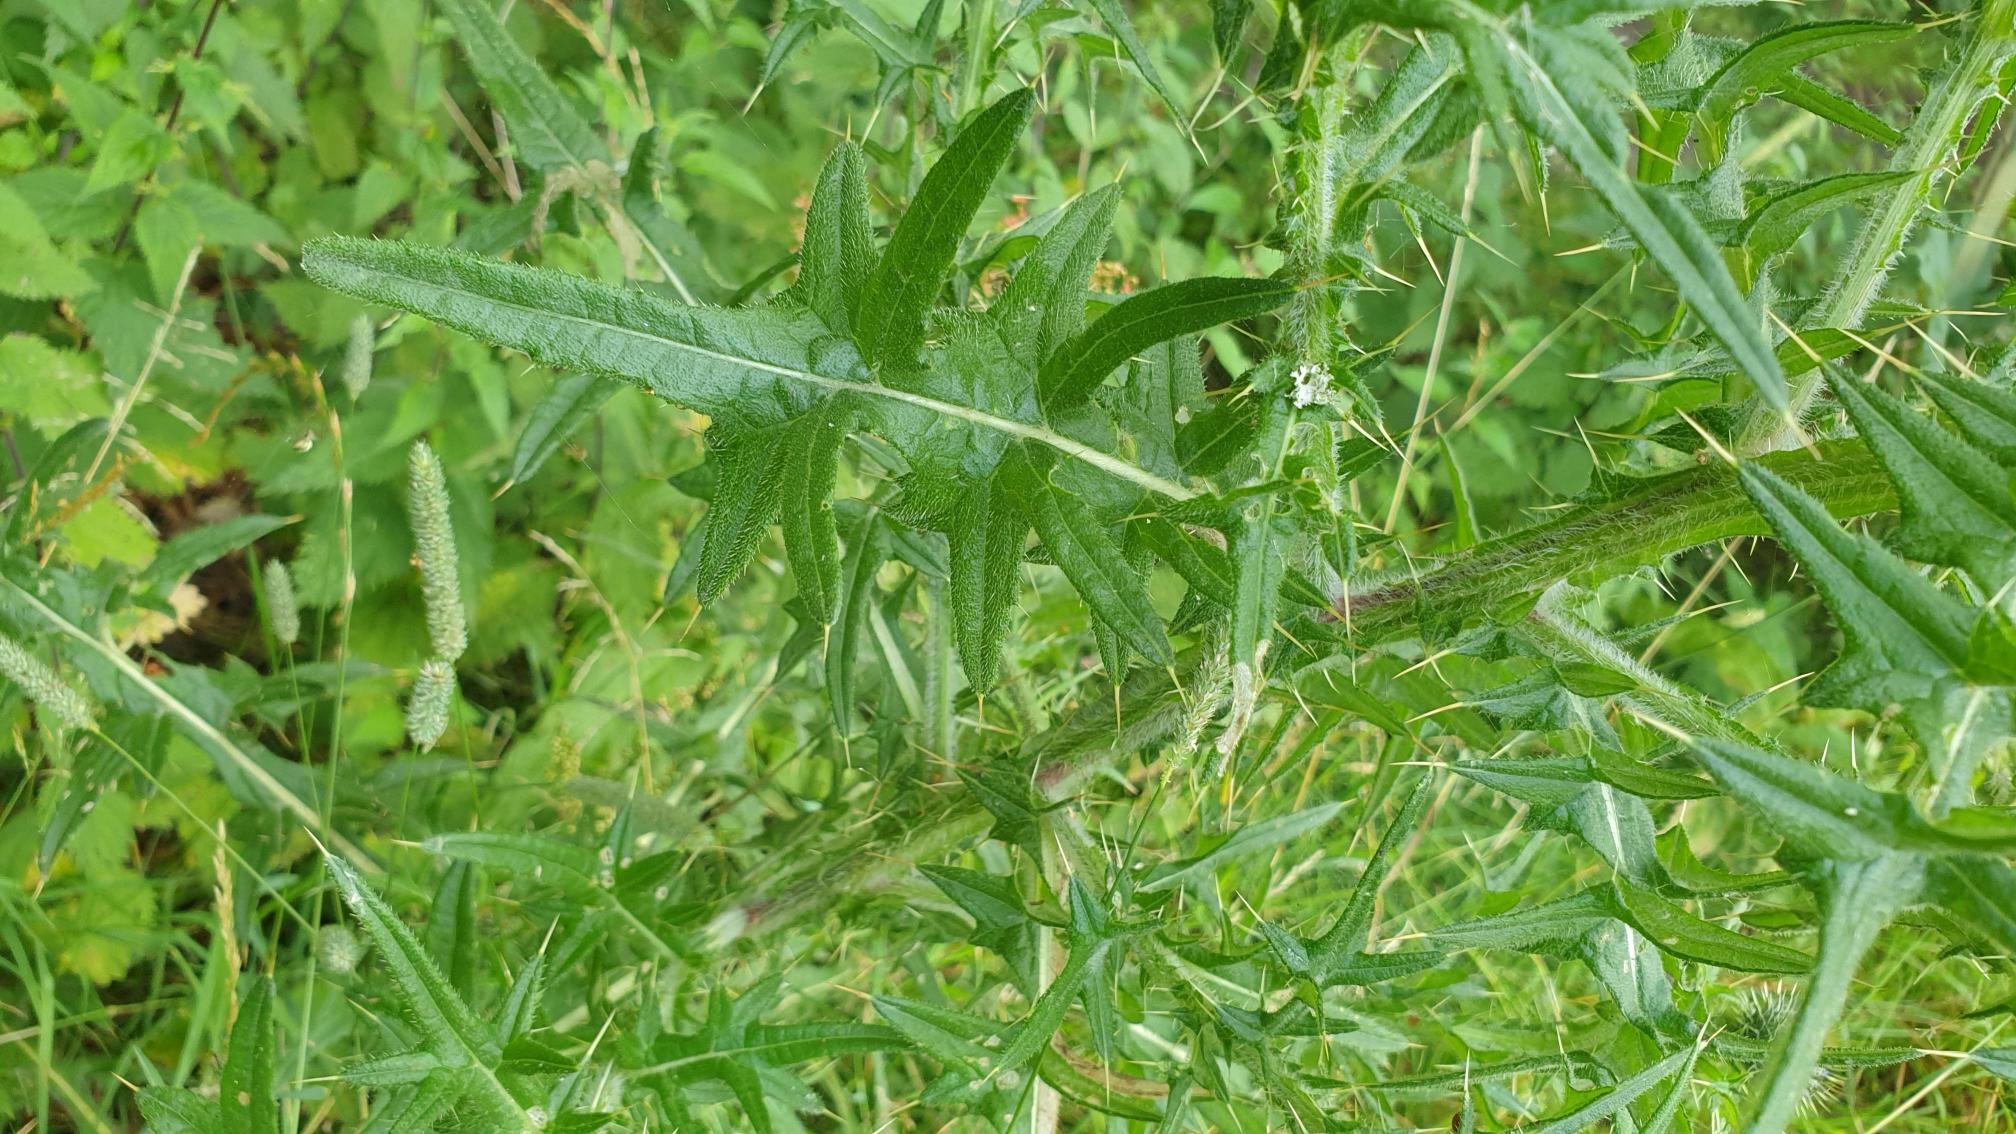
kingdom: Plantae
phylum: Tracheophyta
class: Magnoliopsida
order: Asterales
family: Asteraceae
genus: Cirsium
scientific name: Cirsium vulgare
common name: Horse-tidsel
